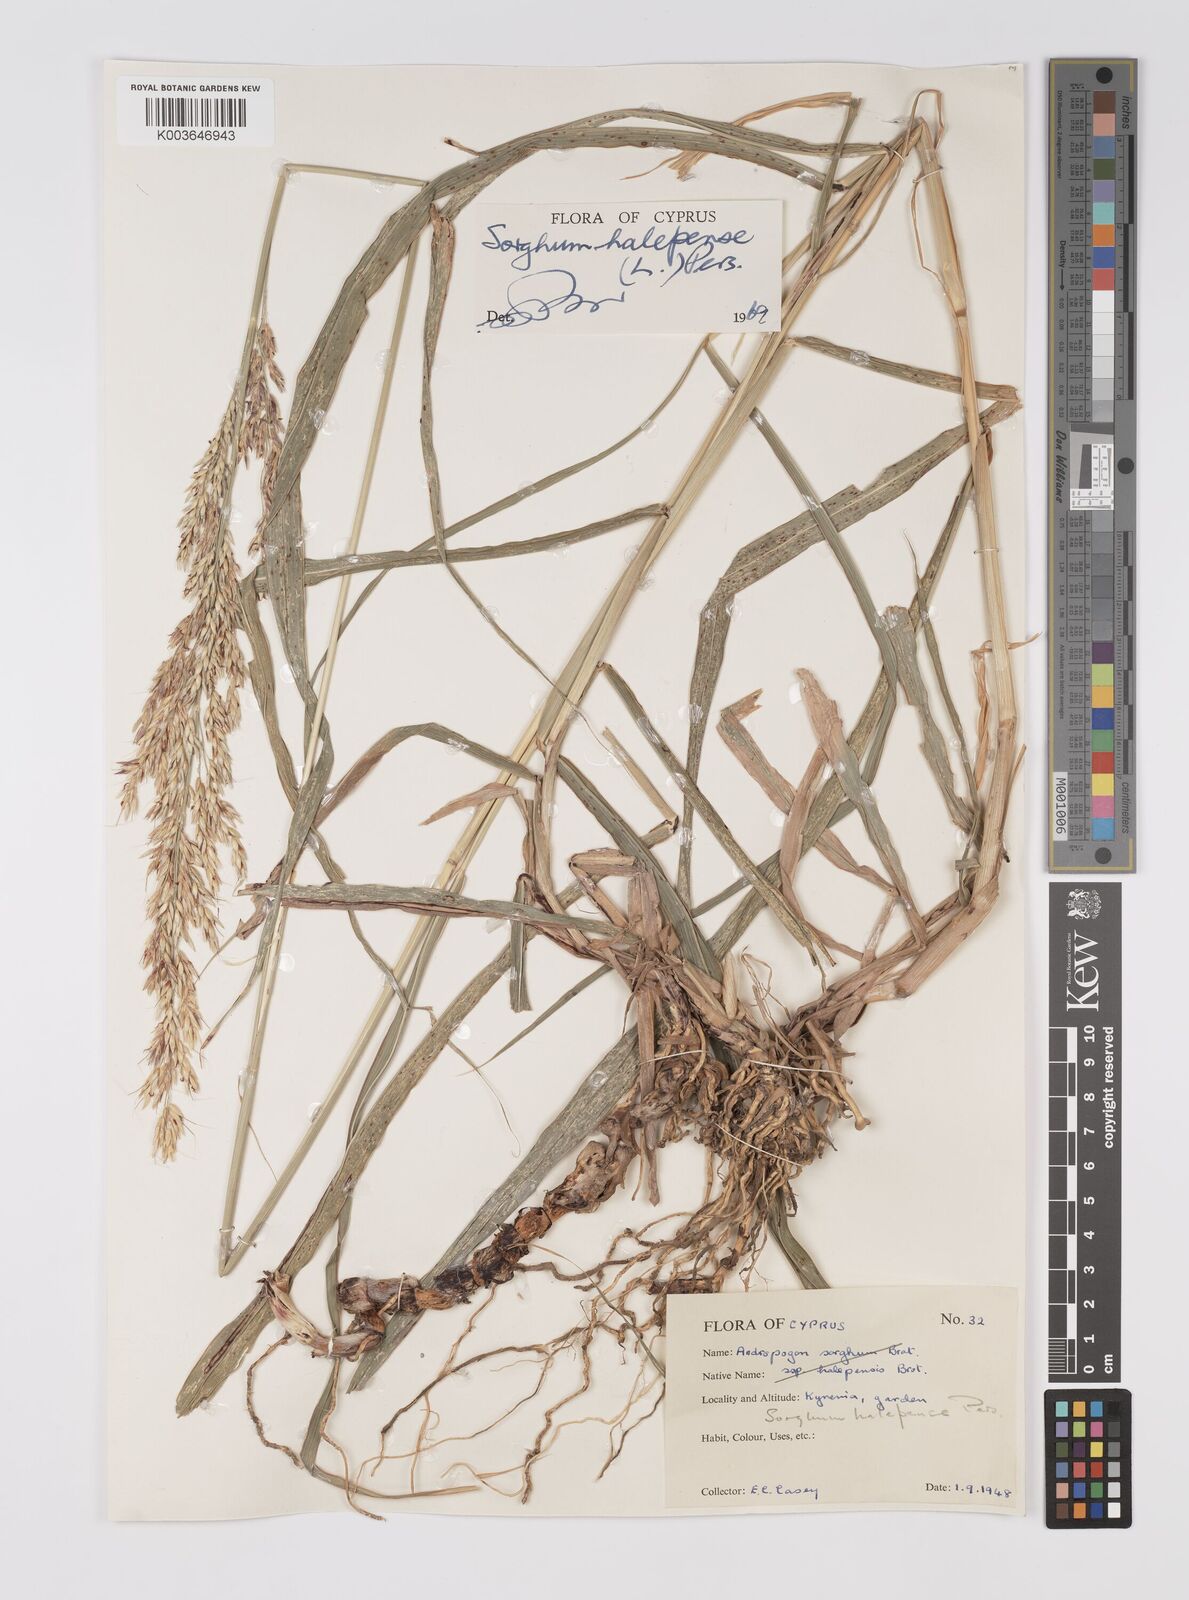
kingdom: Plantae
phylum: Tracheophyta
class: Liliopsida
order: Poales
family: Poaceae
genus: Sorghum
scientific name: Sorghum halepense
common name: Johnson-grass
